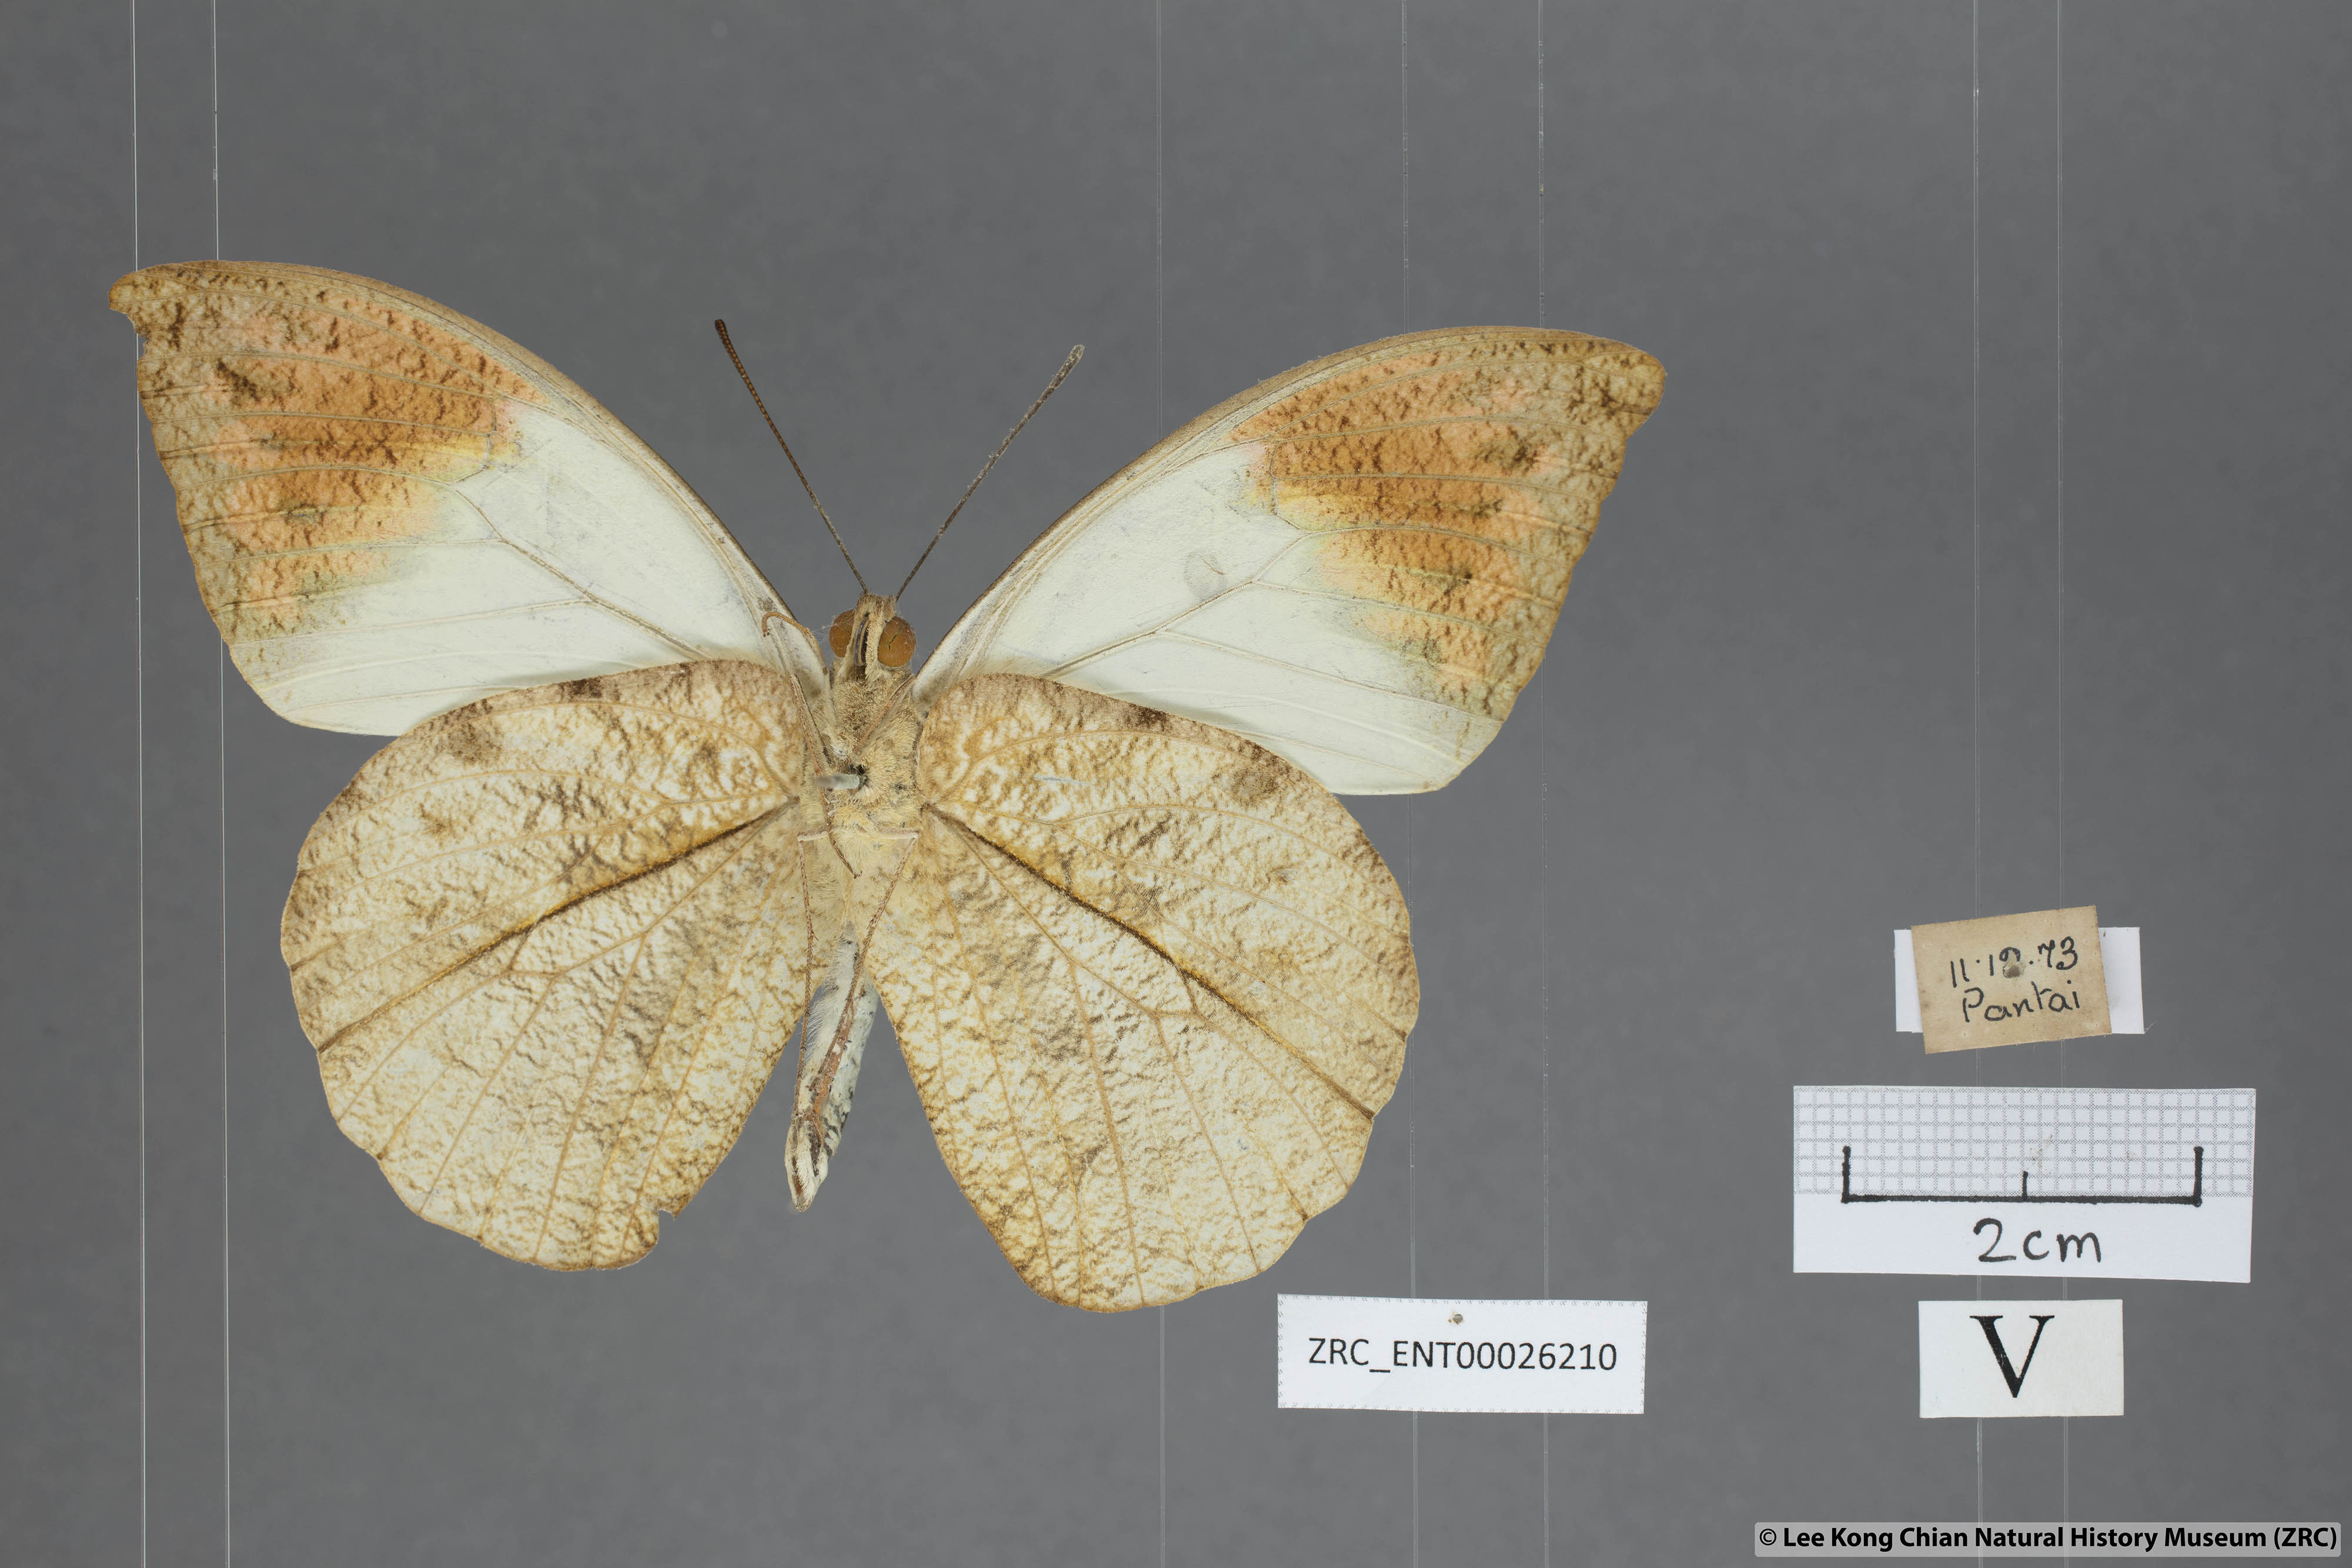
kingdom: Animalia
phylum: Arthropoda
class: Insecta
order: Lepidoptera
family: Pieridae
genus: Hebomoia
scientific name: Hebomoia glaucippe
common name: Great orange tip
